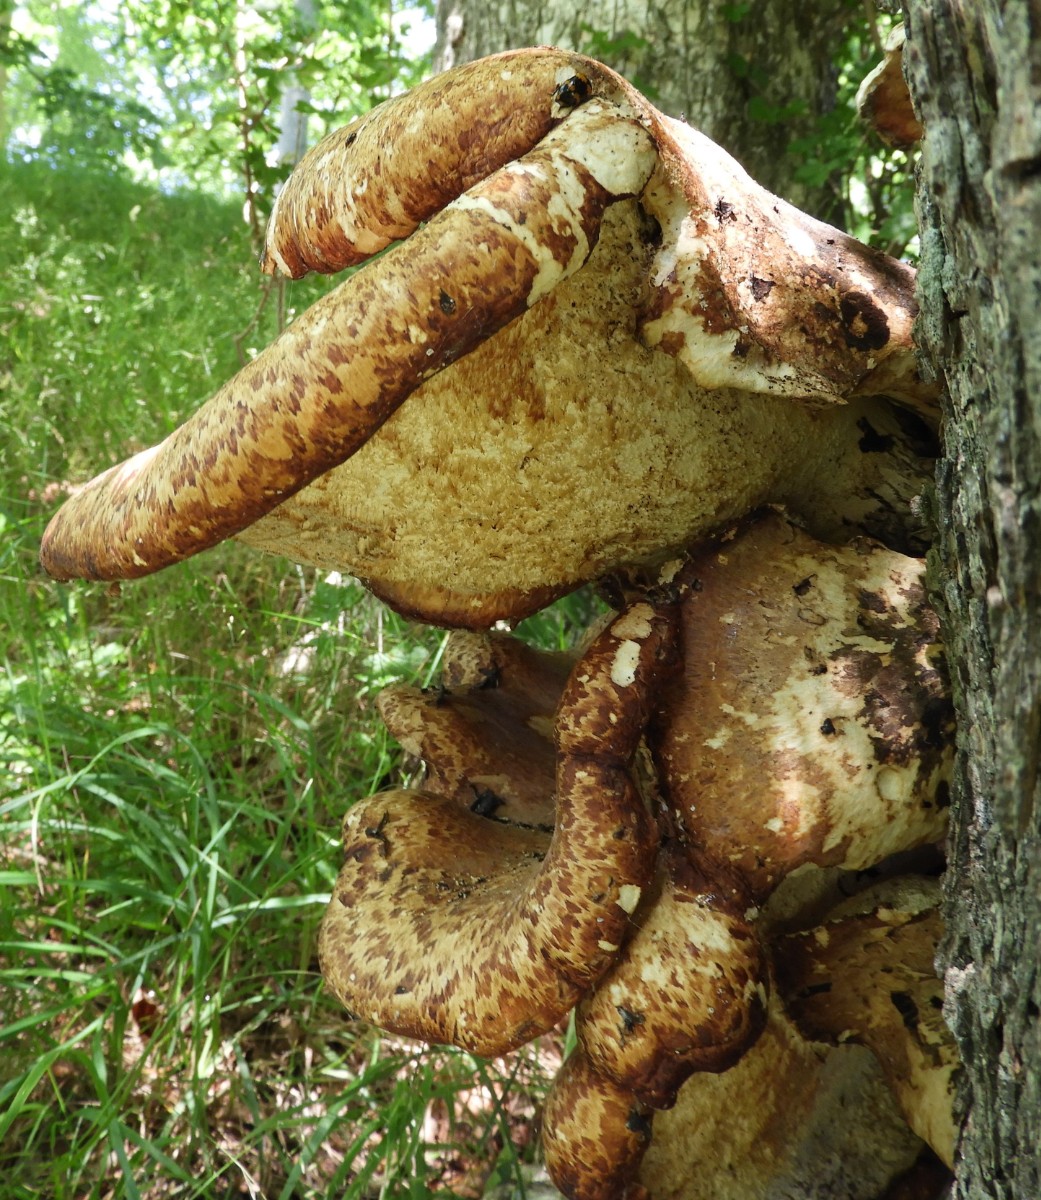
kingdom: Fungi
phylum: Basidiomycota
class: Agaricomycetes
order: Polyporales
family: Polyporaceae
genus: Cerioporus
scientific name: Cerioporus squamosus
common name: skællet stilkporesvamp
